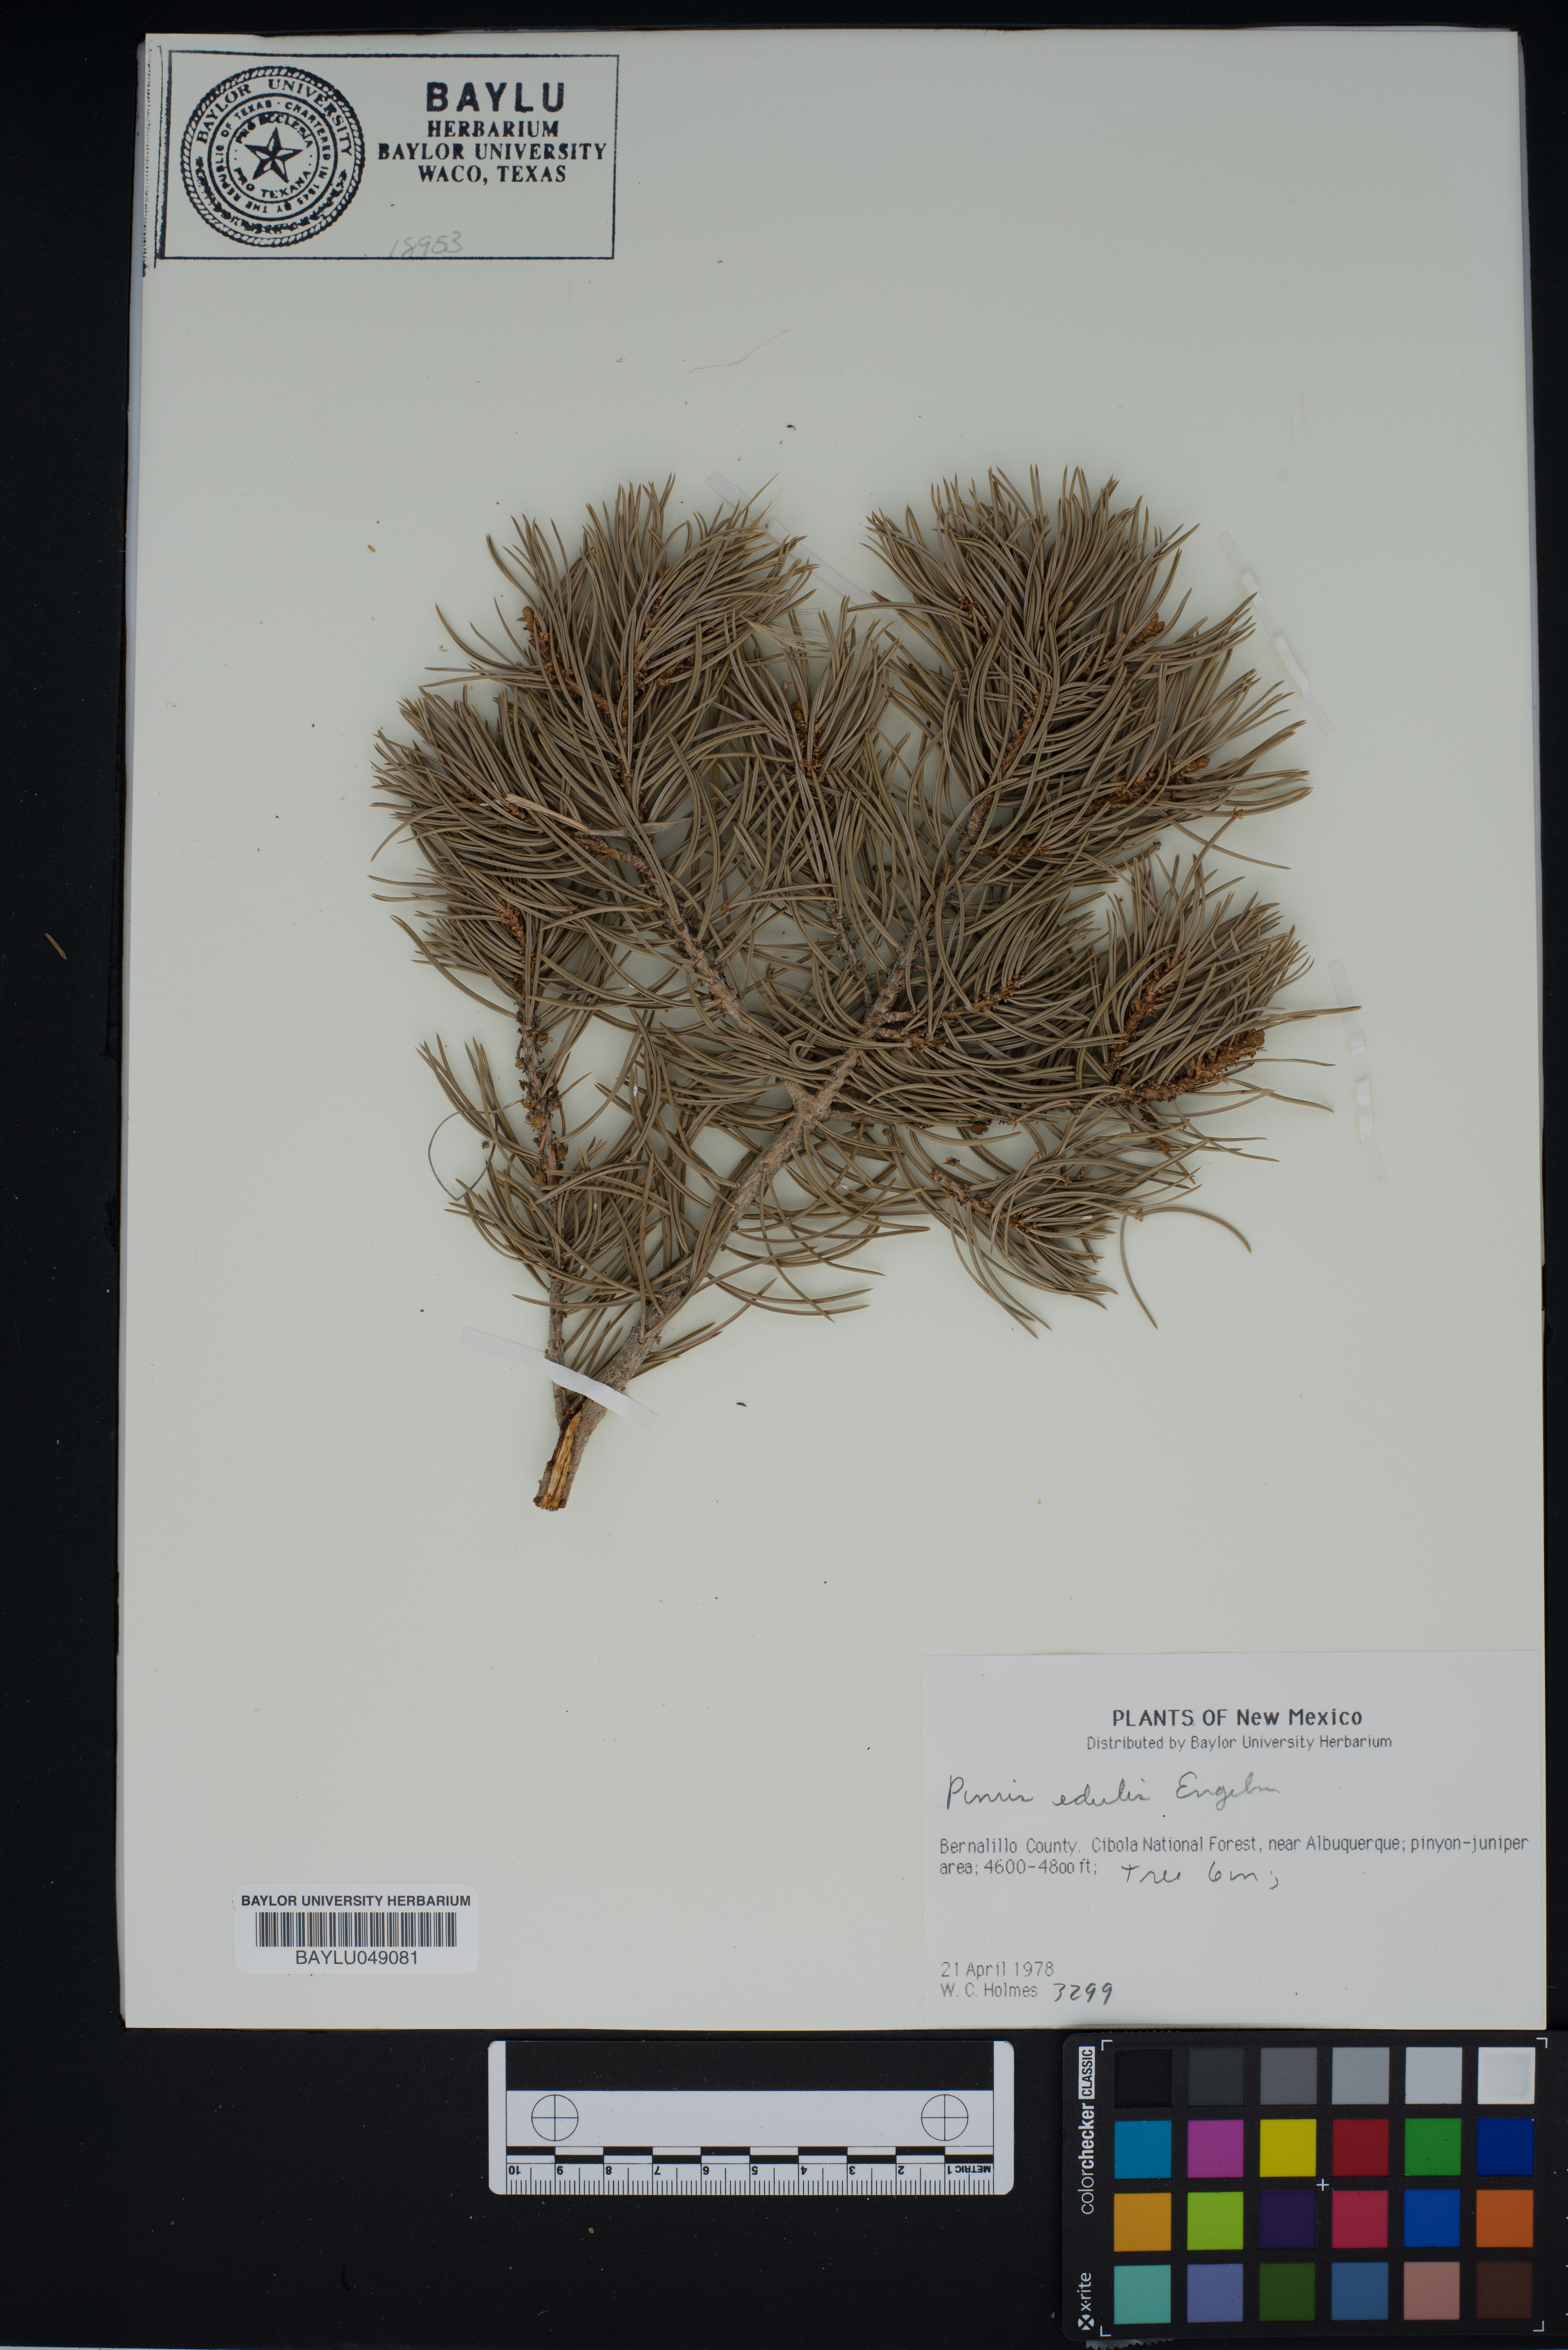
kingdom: Plantae
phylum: Tracheophyta
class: Pinopsida
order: Pinales
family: Pinaceae
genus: Pinus
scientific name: Pinus edulis
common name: Colorado pinyon
